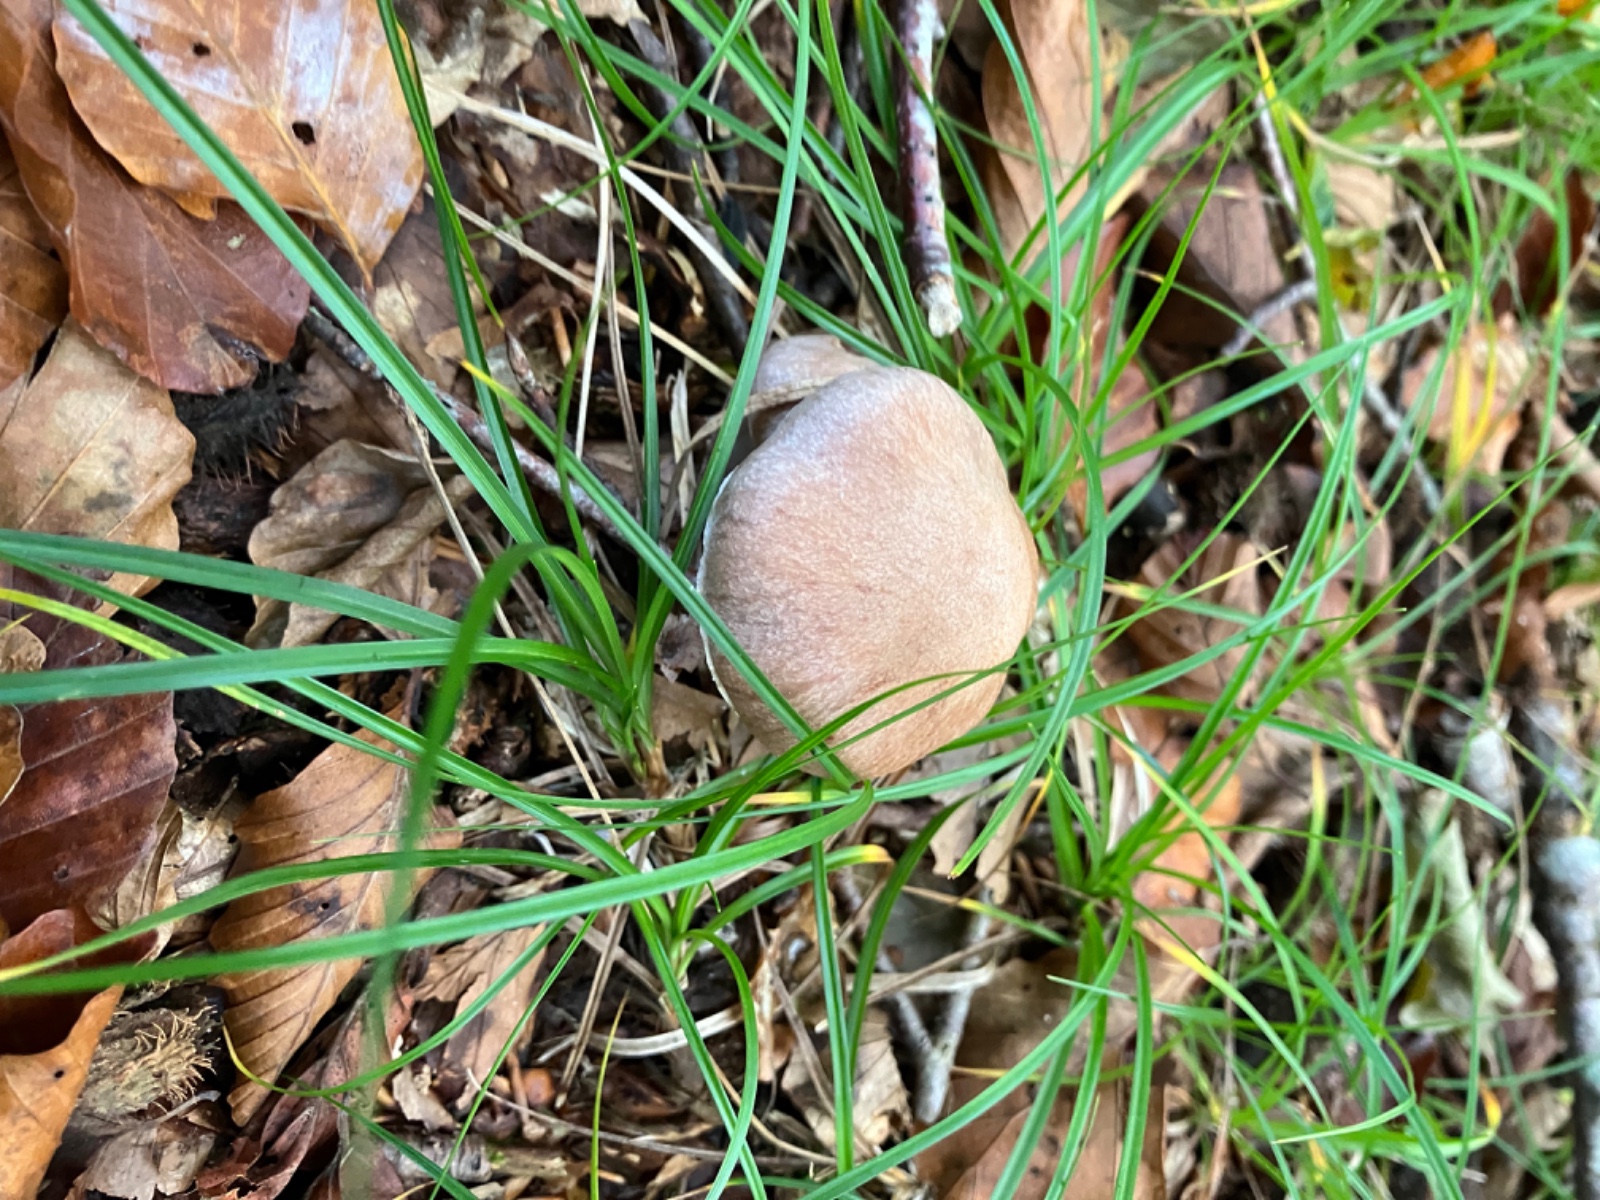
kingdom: Fungi
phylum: Basidiomycota
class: Agaricomycetes
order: Agaricales
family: Cortinariaceae
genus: Cortinarius
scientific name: Cortinarius torvus
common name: champignonagtig slørhat
